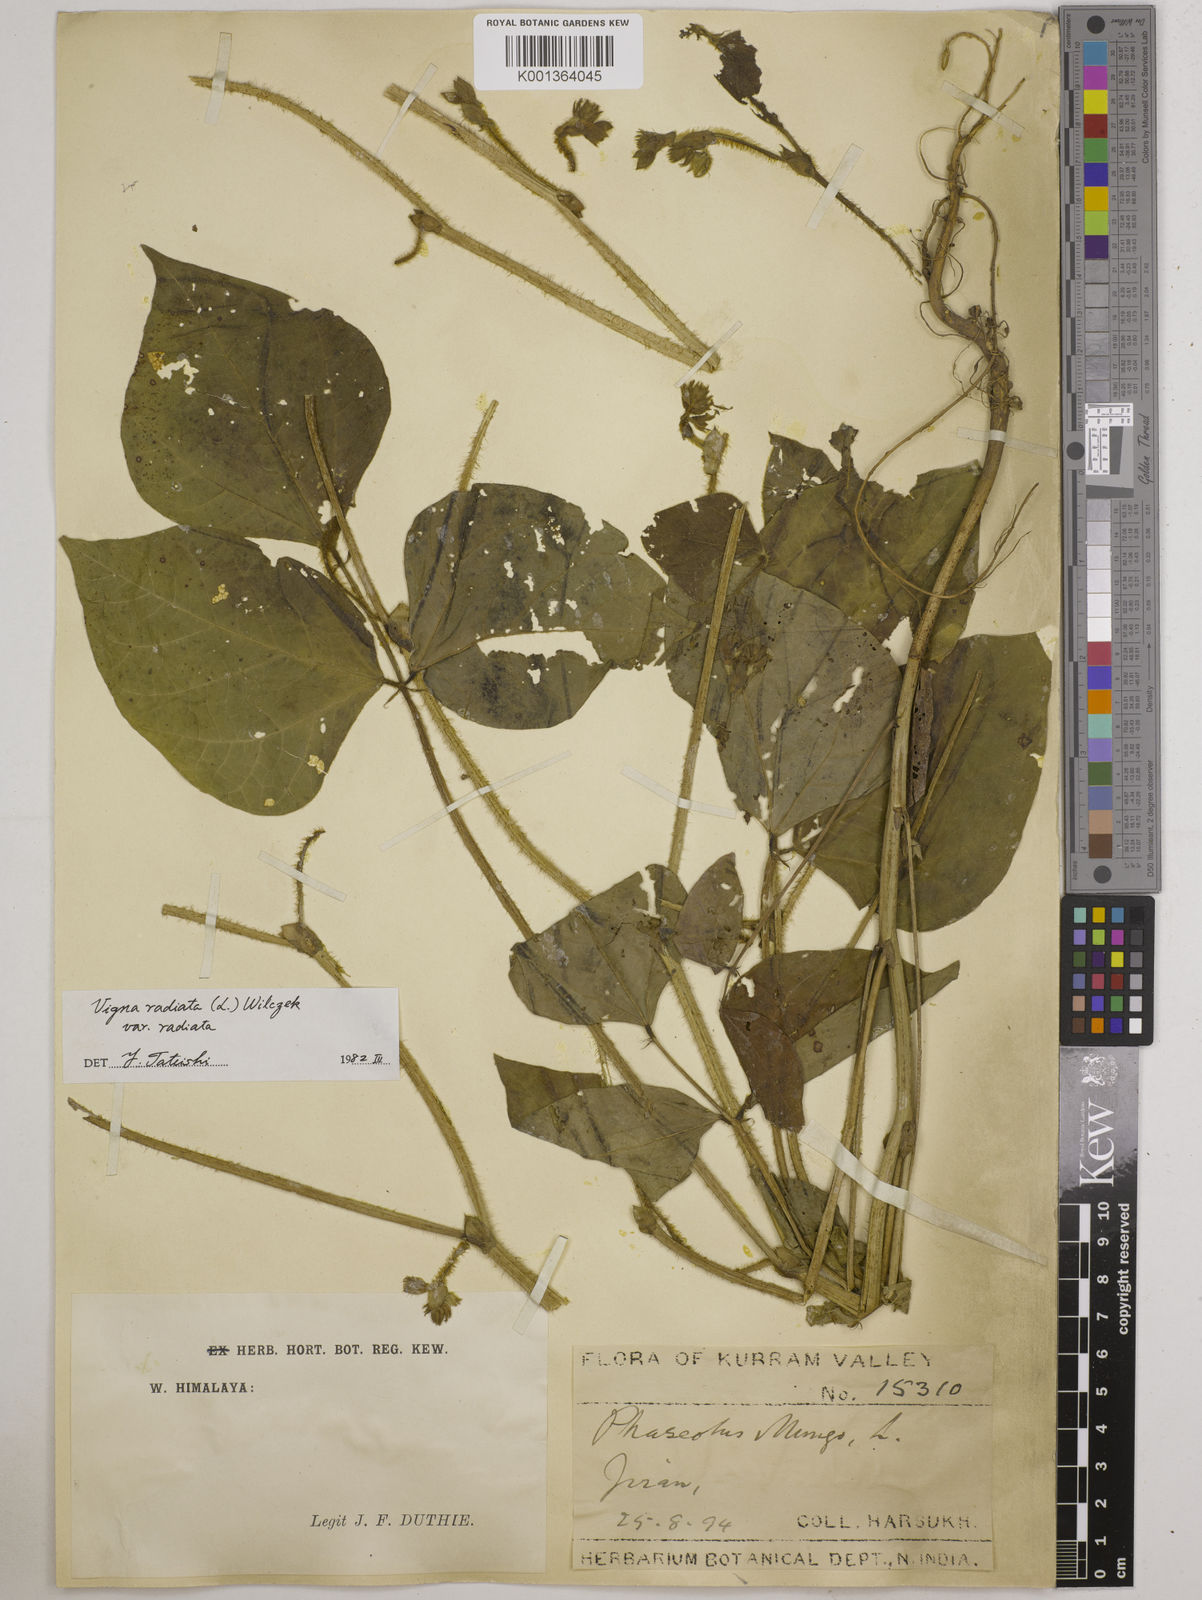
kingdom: Plantae
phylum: Tracheophyta
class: Magnoliopsida
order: Fabales
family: Fabaceae
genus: Vigna
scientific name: Vigna radiata
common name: Mung-bean
